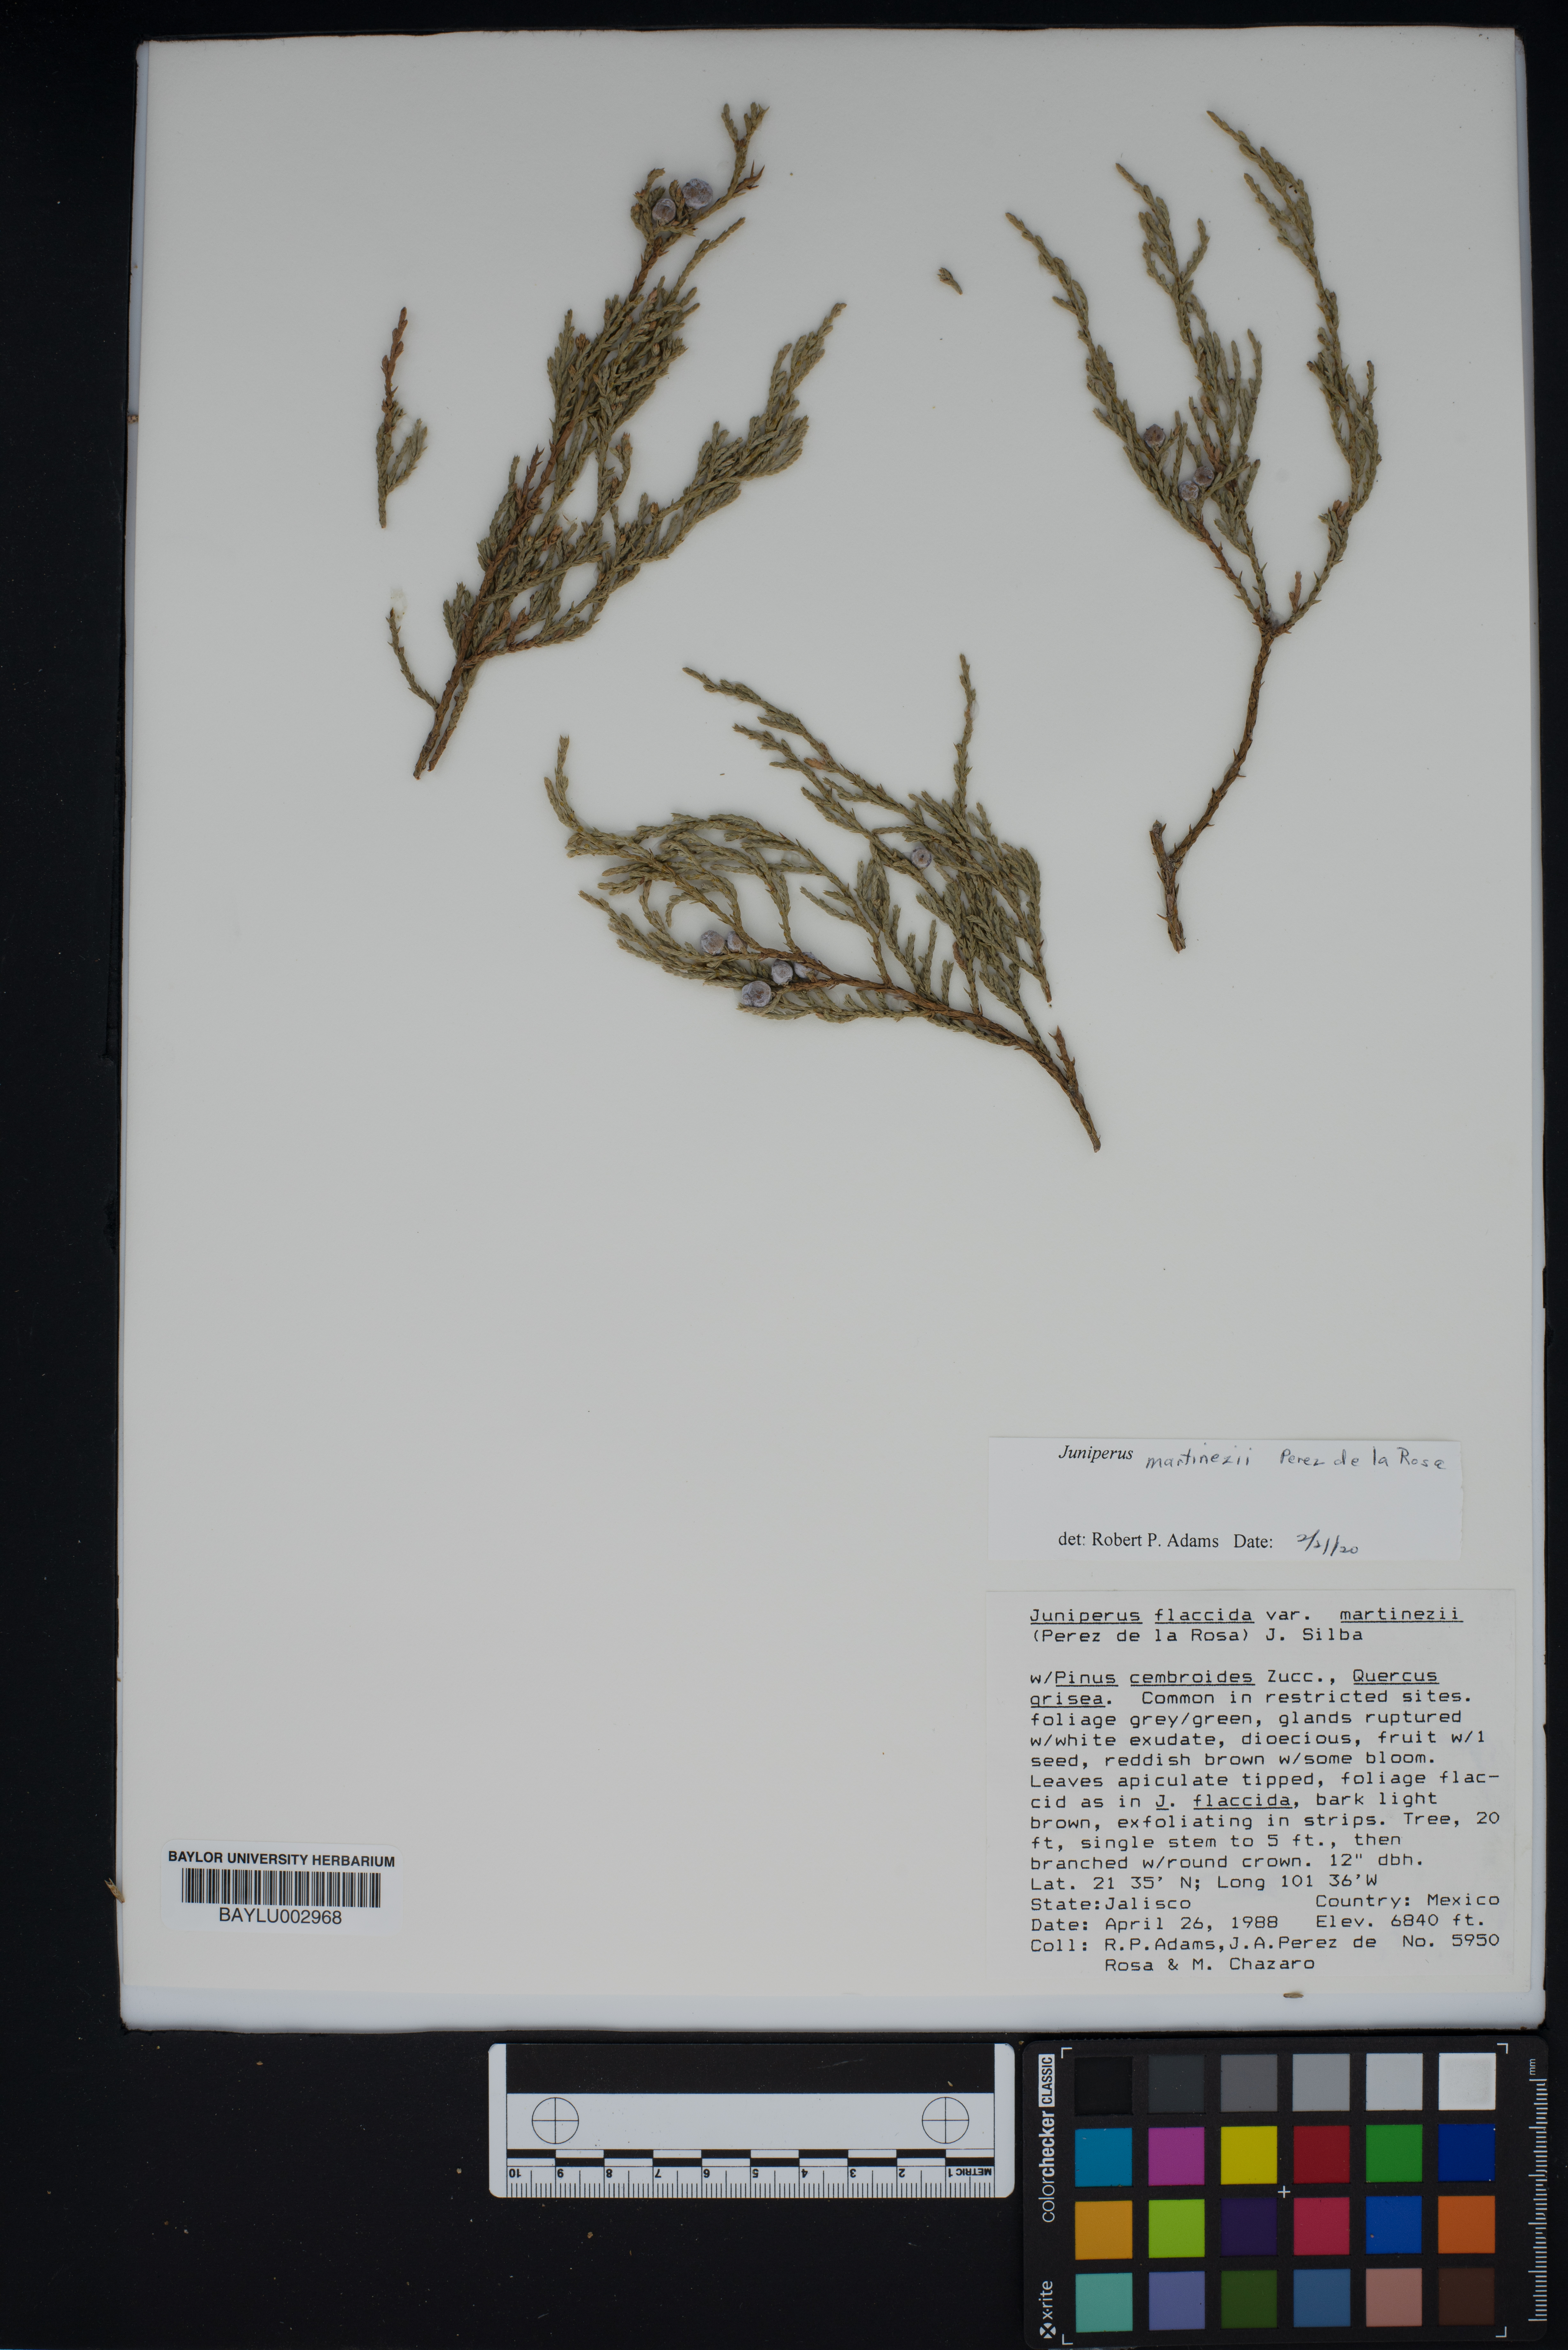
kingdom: Plantae
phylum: Tracheophyta
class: Pinopsida
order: Pinales
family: Cupressaceae
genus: Juniperus
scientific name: Juniperus flaccida
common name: Drooping juniper
